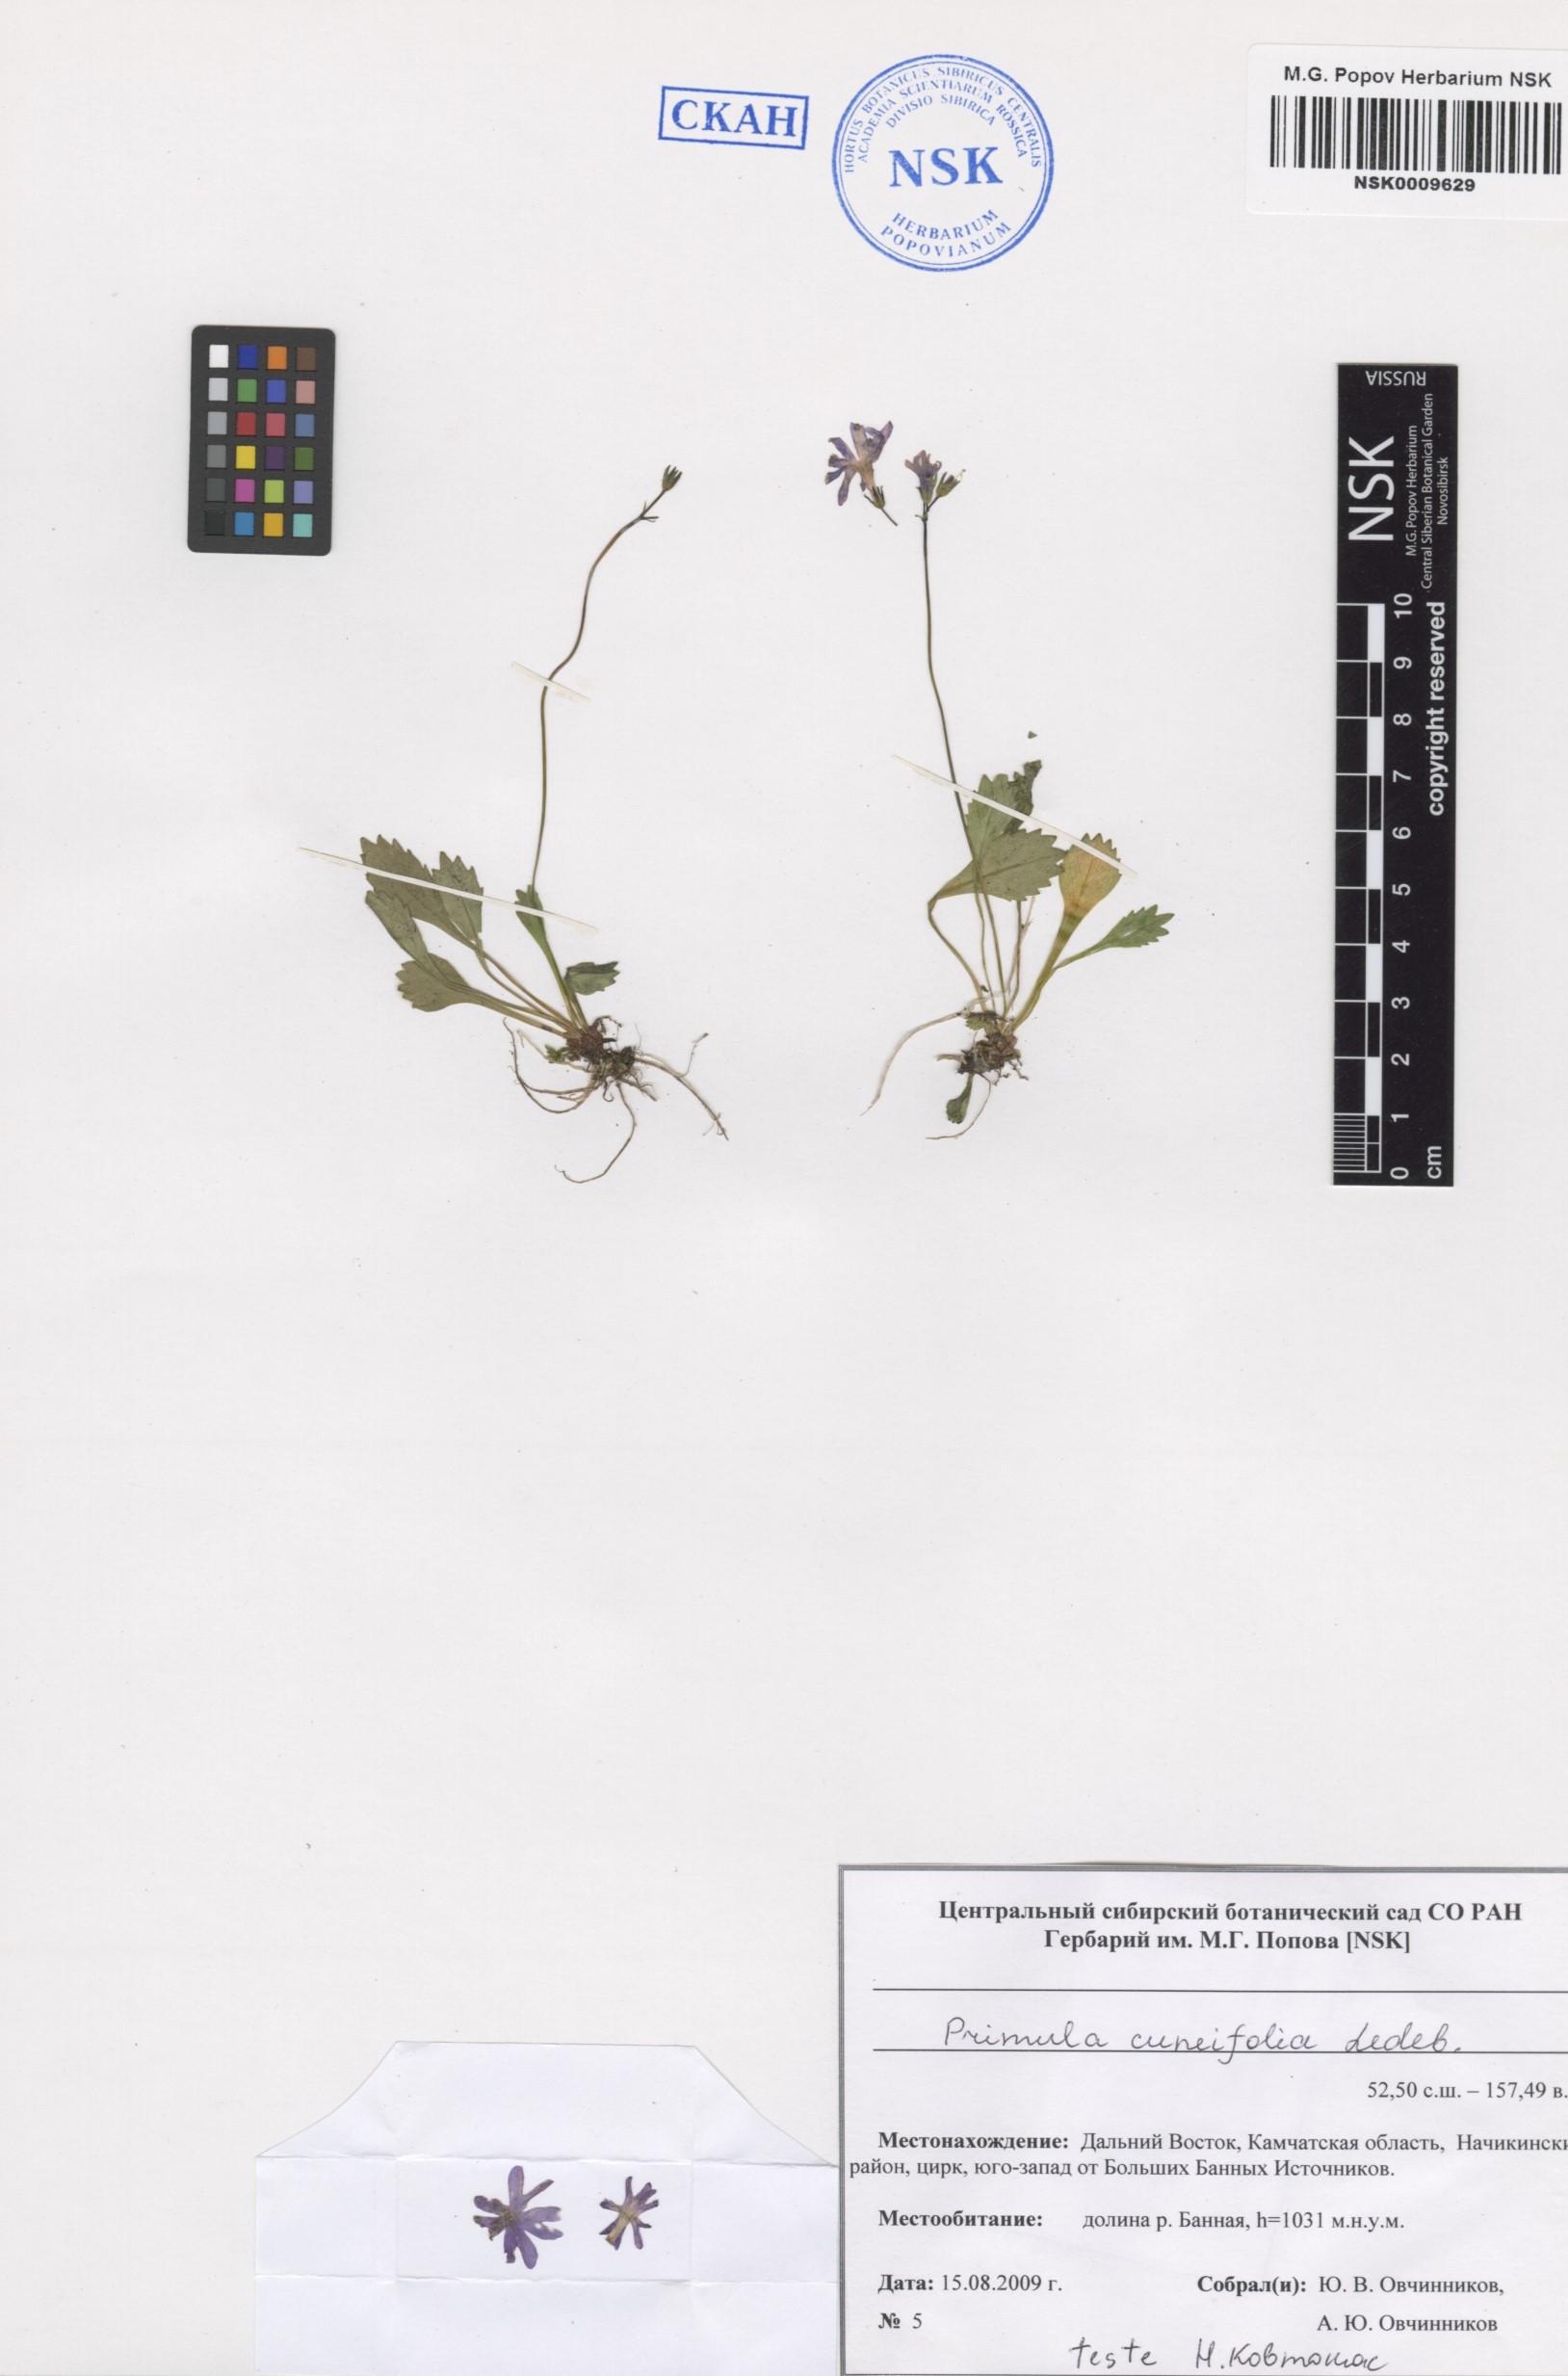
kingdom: Plantae
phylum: Tracheophyta
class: Magnoliopsida
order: Ericales
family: Primulaceae
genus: Primula
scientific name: Primula cuneifolia
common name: Wedge-leaved primrose
